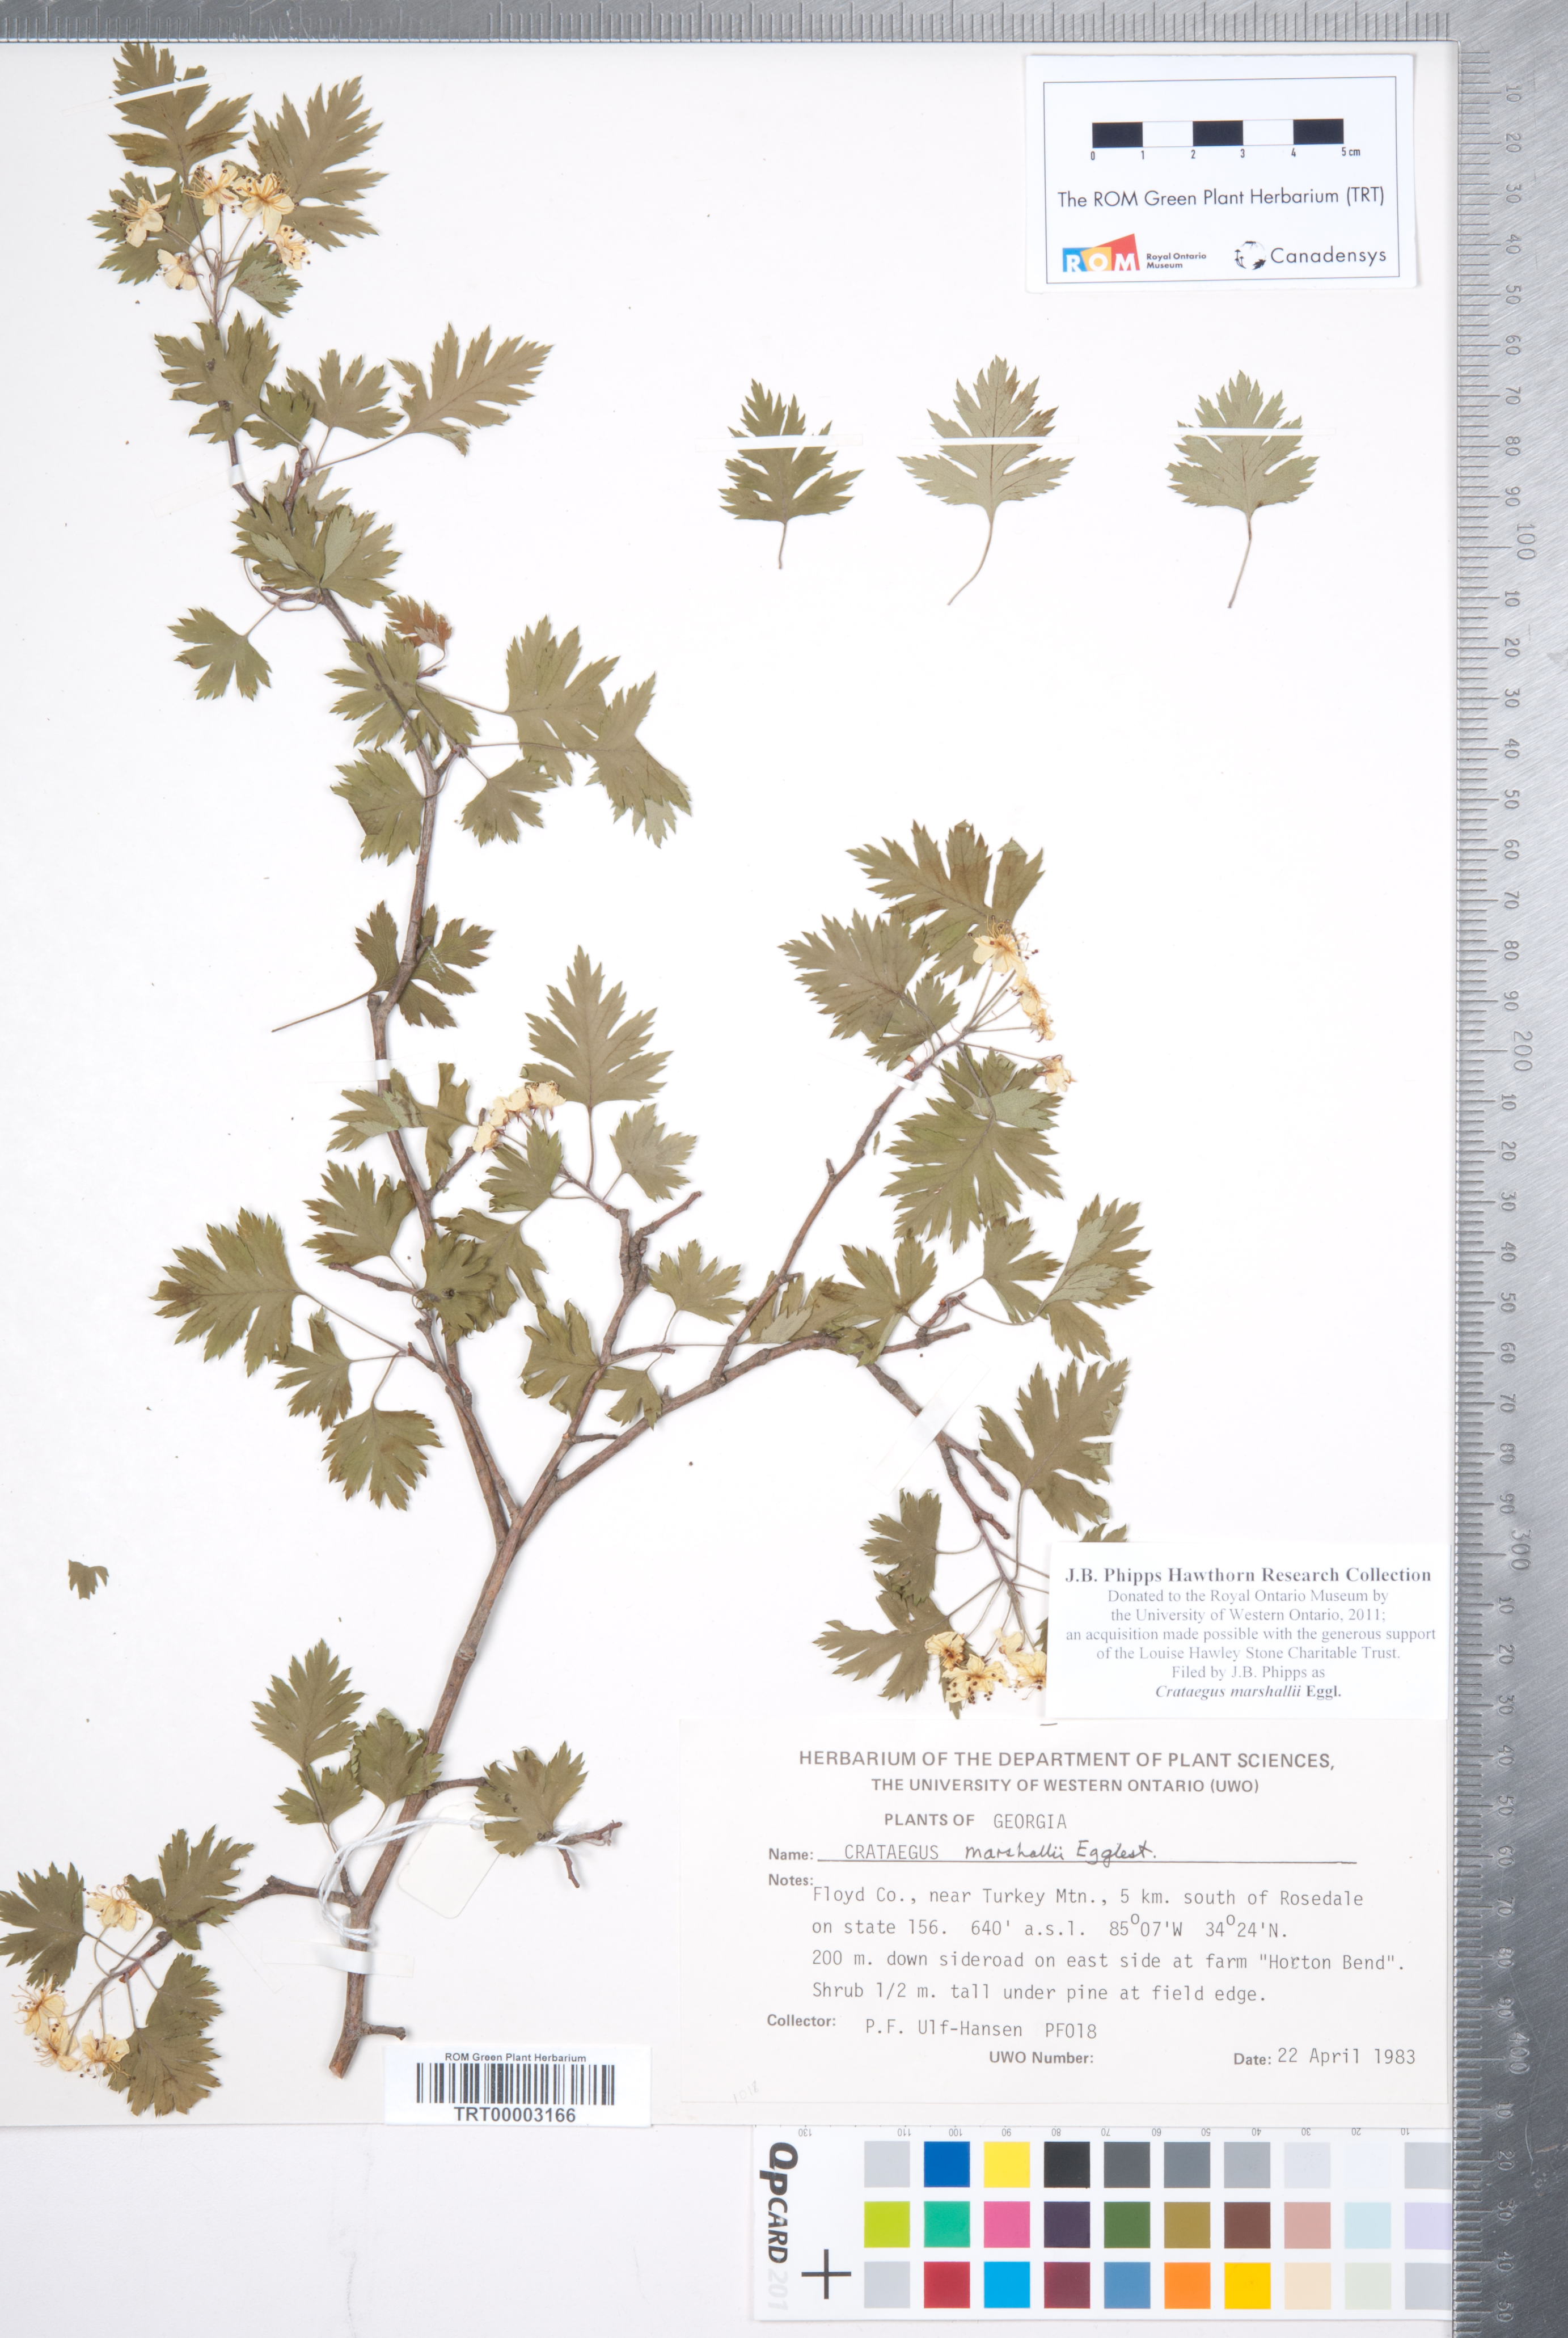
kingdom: Plantae
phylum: Tracheophyta
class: Magnoliopsida
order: Rosales
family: Rosaceae
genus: Crataegus
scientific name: Crataegus marshallii
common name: Parsley-hawthorn
